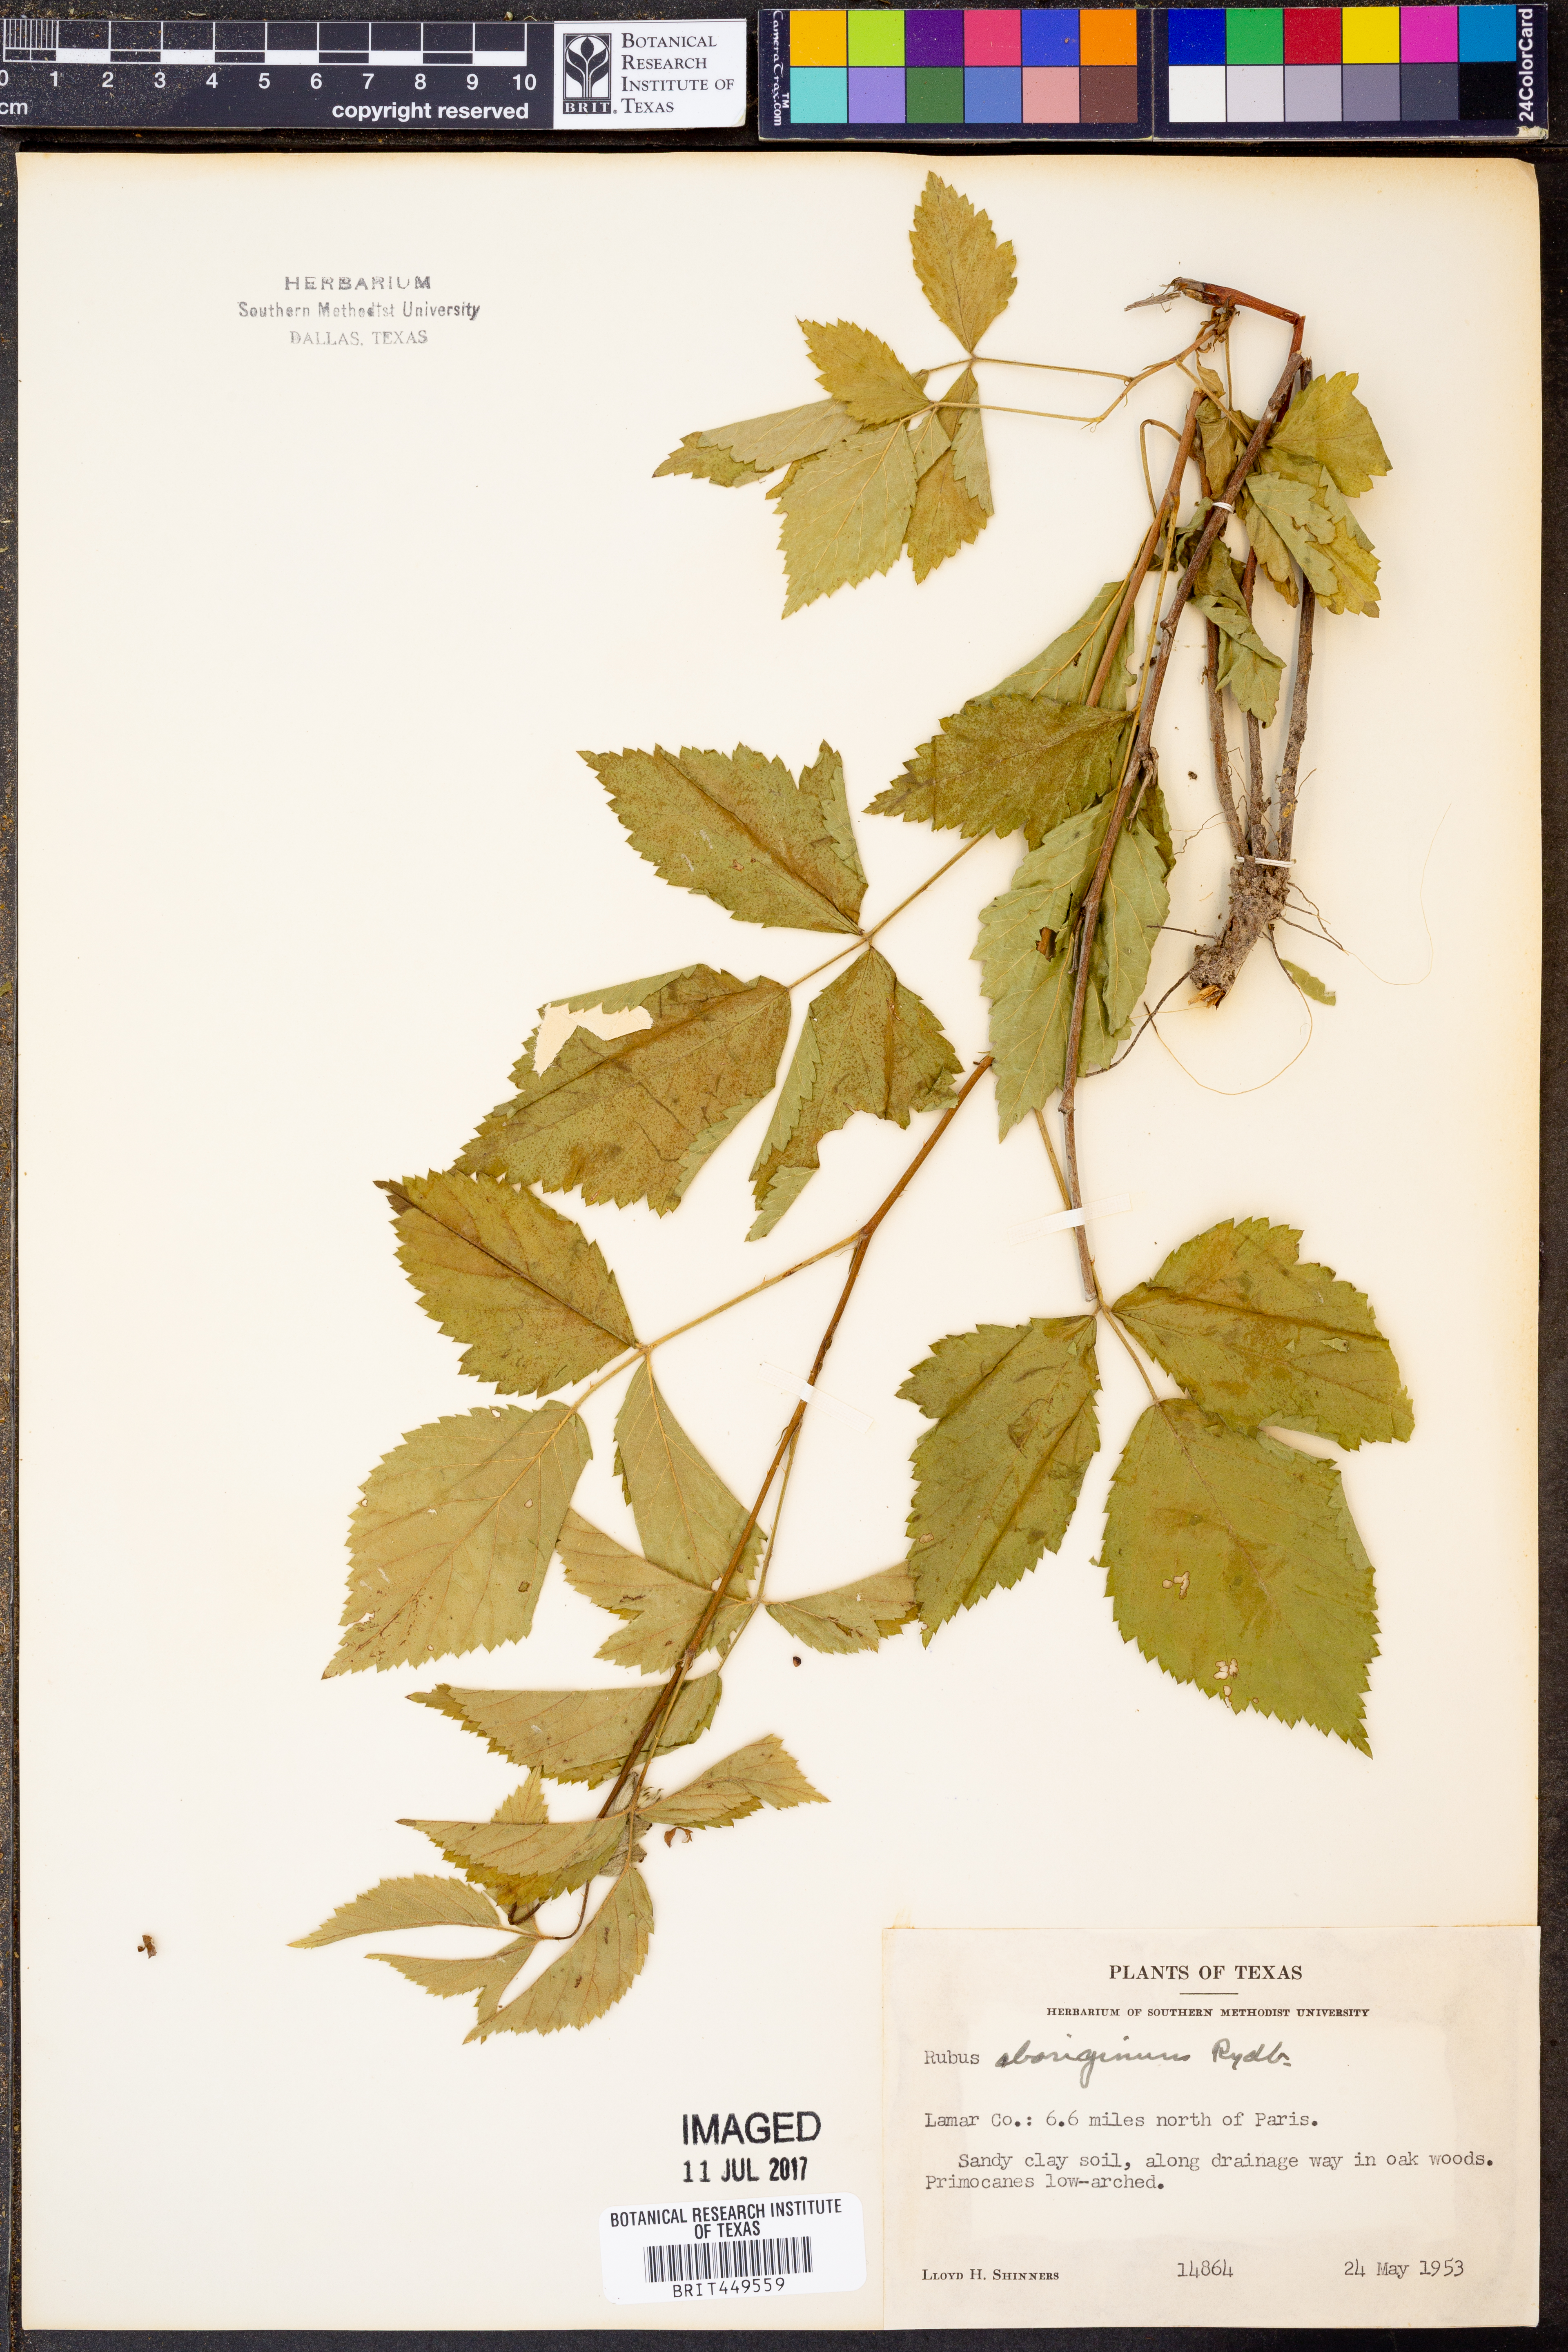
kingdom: Plantae
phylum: Tracheophyta
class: Magnoliopsida
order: Rosales
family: Rosaceae
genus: Rubus
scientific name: Rubus aboriginum
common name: Mayes dewberry
